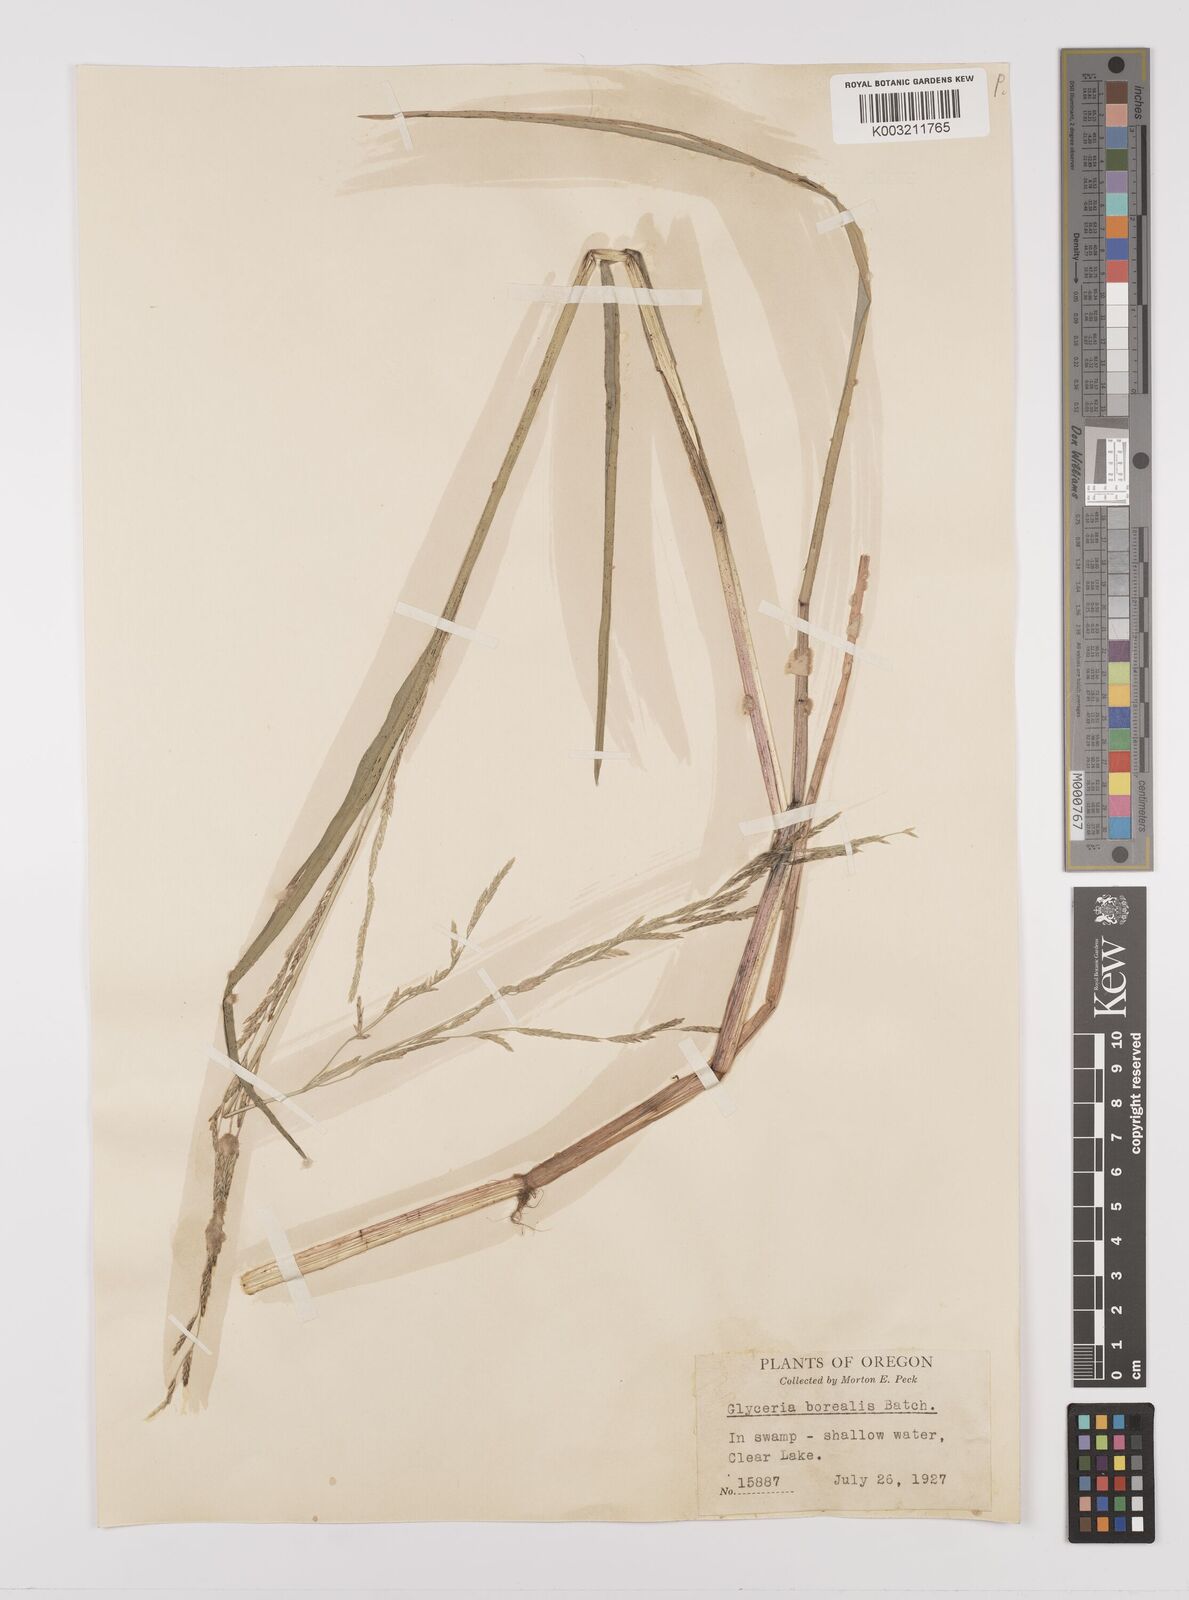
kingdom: Plantae
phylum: Tracheophyta
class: Liliopsida
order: Poales
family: Poaceae
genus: Glyceria
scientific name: Glyceria borealis
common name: Boreal glyceria
